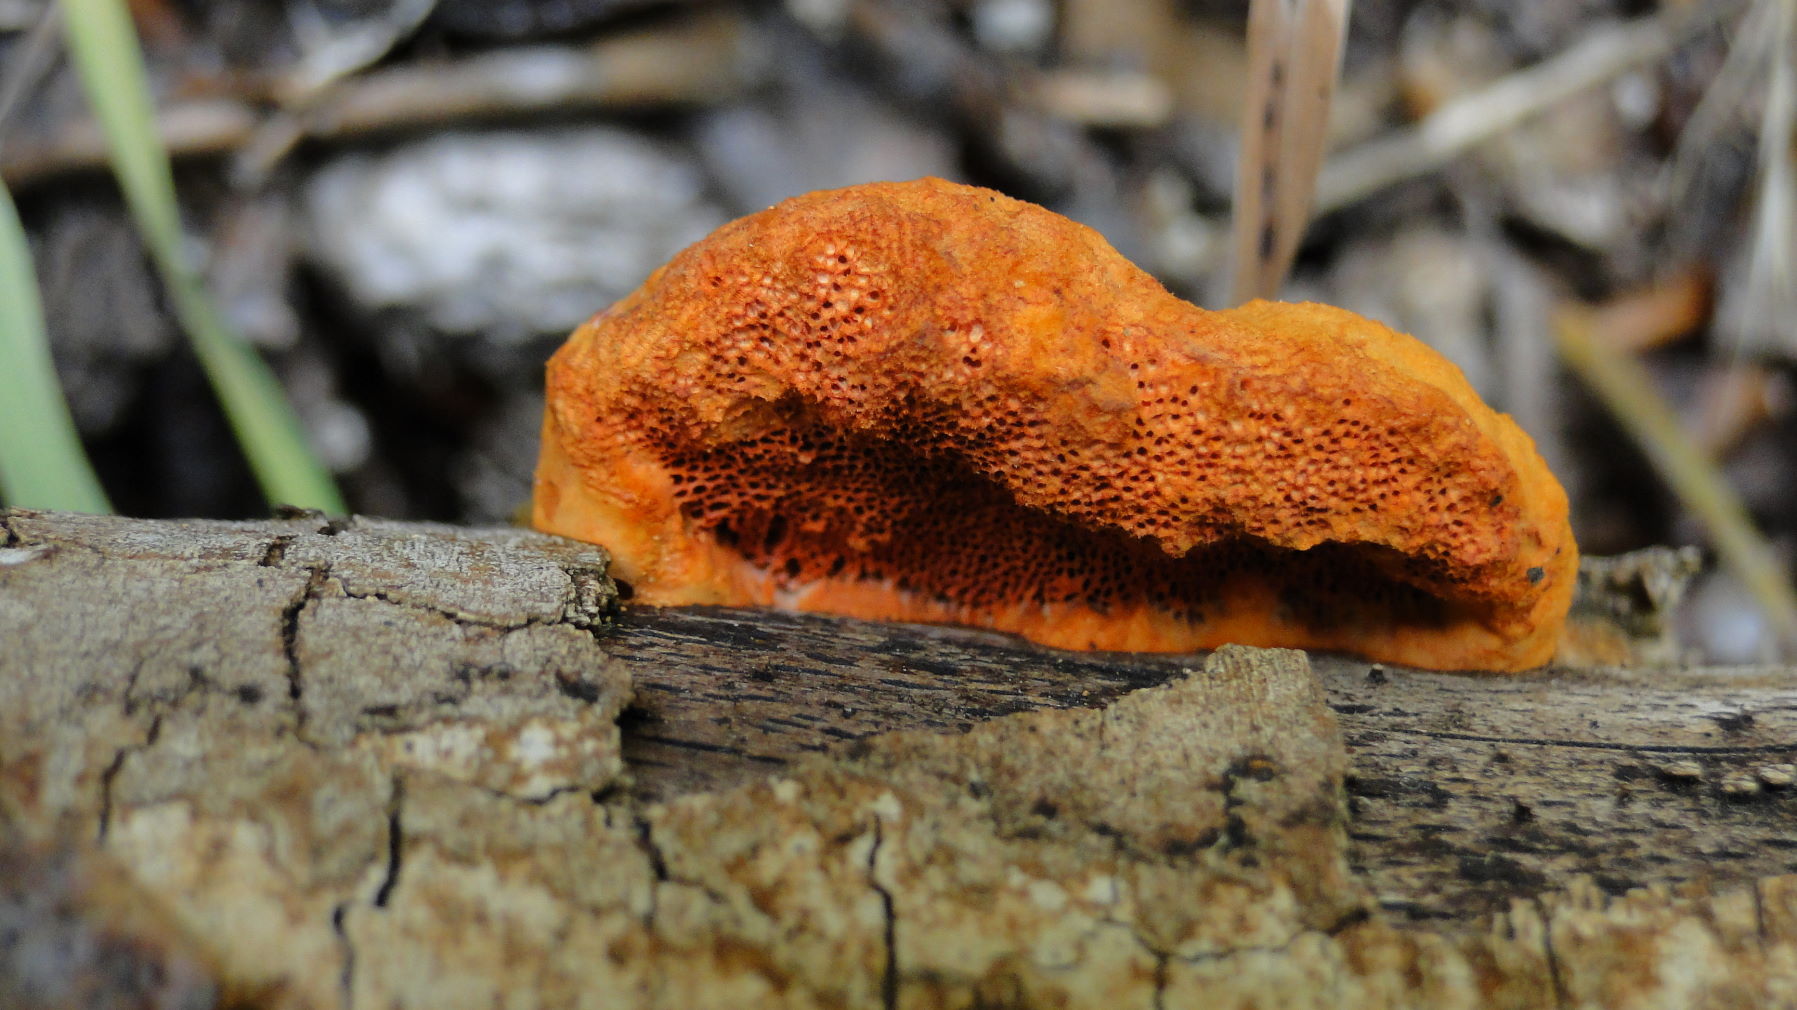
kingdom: Fungi
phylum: Basidiomycota
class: Agaricomycetes
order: Polyporales
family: Polyporaceae
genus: Trametes
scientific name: Trametes cinnabarina
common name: cinnoberporesvamp
